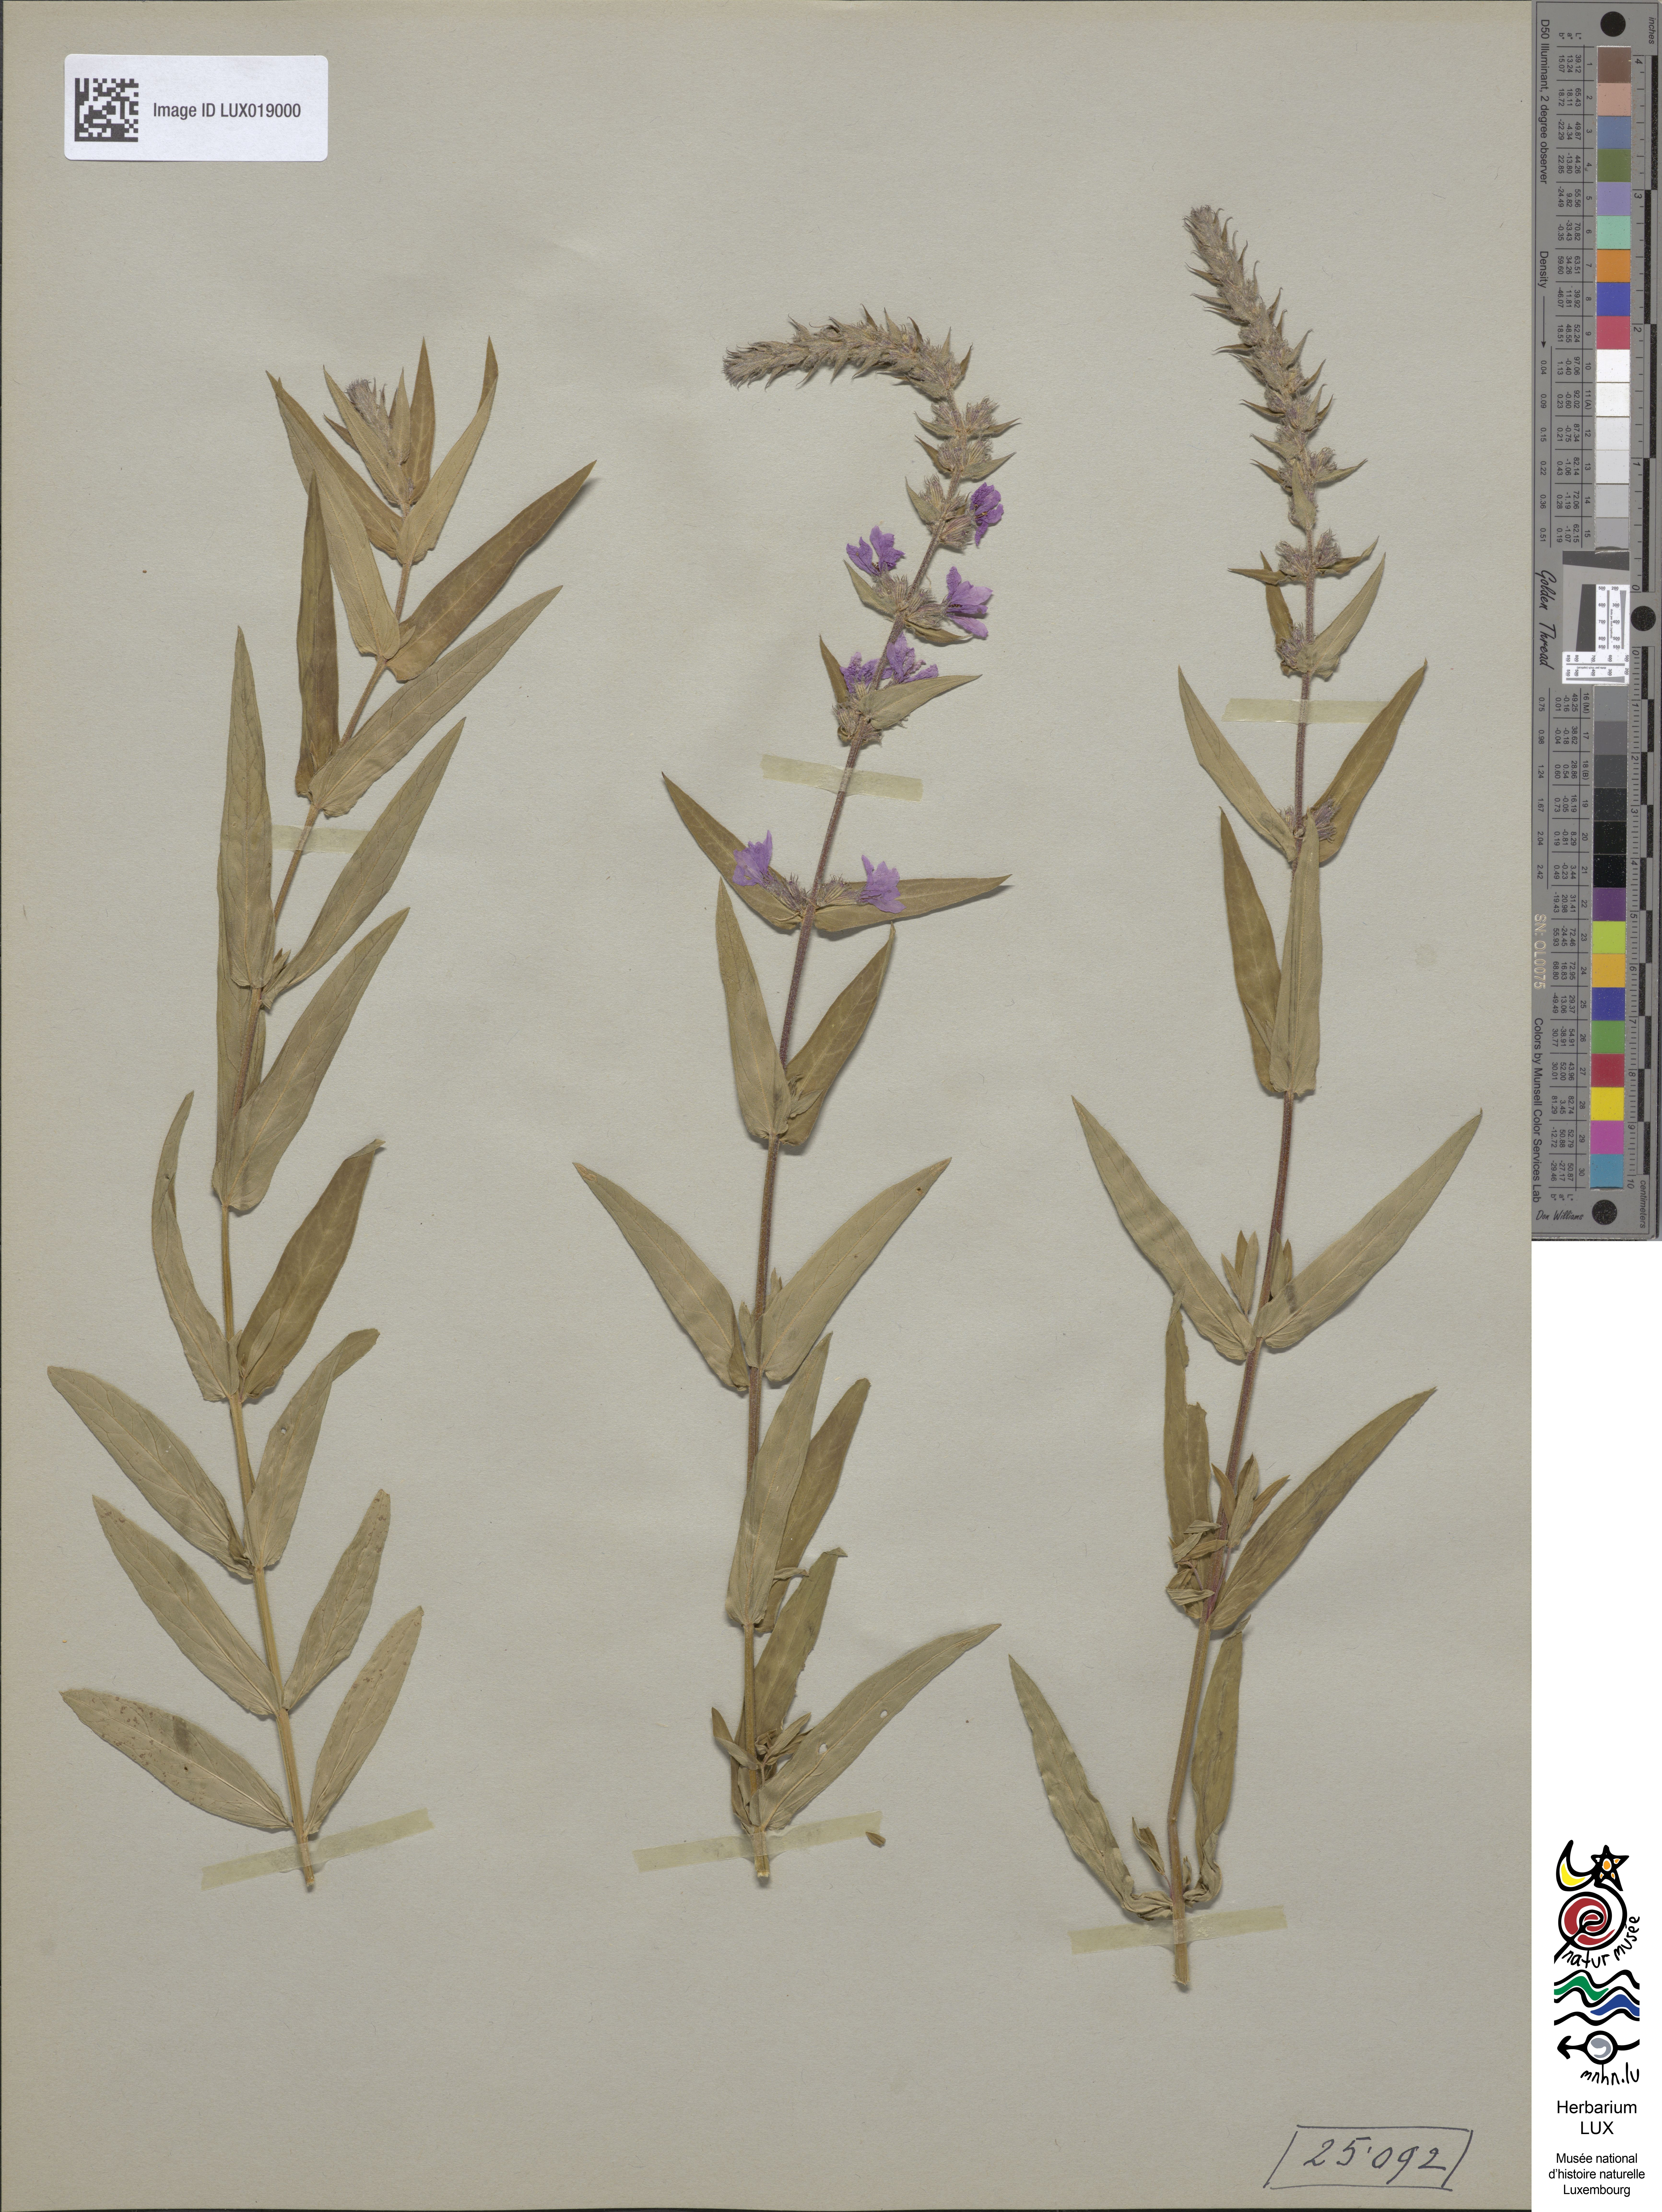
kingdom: Plantae
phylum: Tracheophyta
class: Magnoliopsida
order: Myrtales
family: Lythraceae
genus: Lythrum
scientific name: Lythrum salicaria
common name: Purple loosestrife
